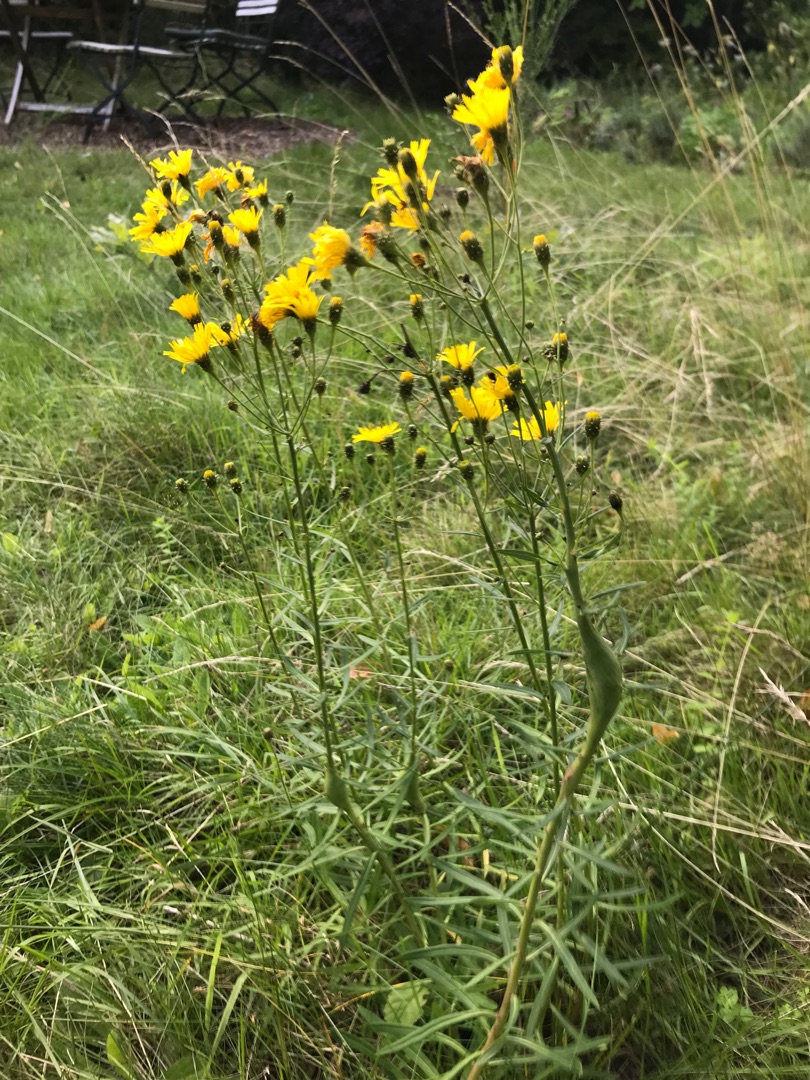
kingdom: Plantae
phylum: Tracheophyta
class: Magnoliopsida
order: Asterales
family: Asteraceae
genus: Hieracium
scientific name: Hieracium umbellatum
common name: Smalbladet høgeurt
